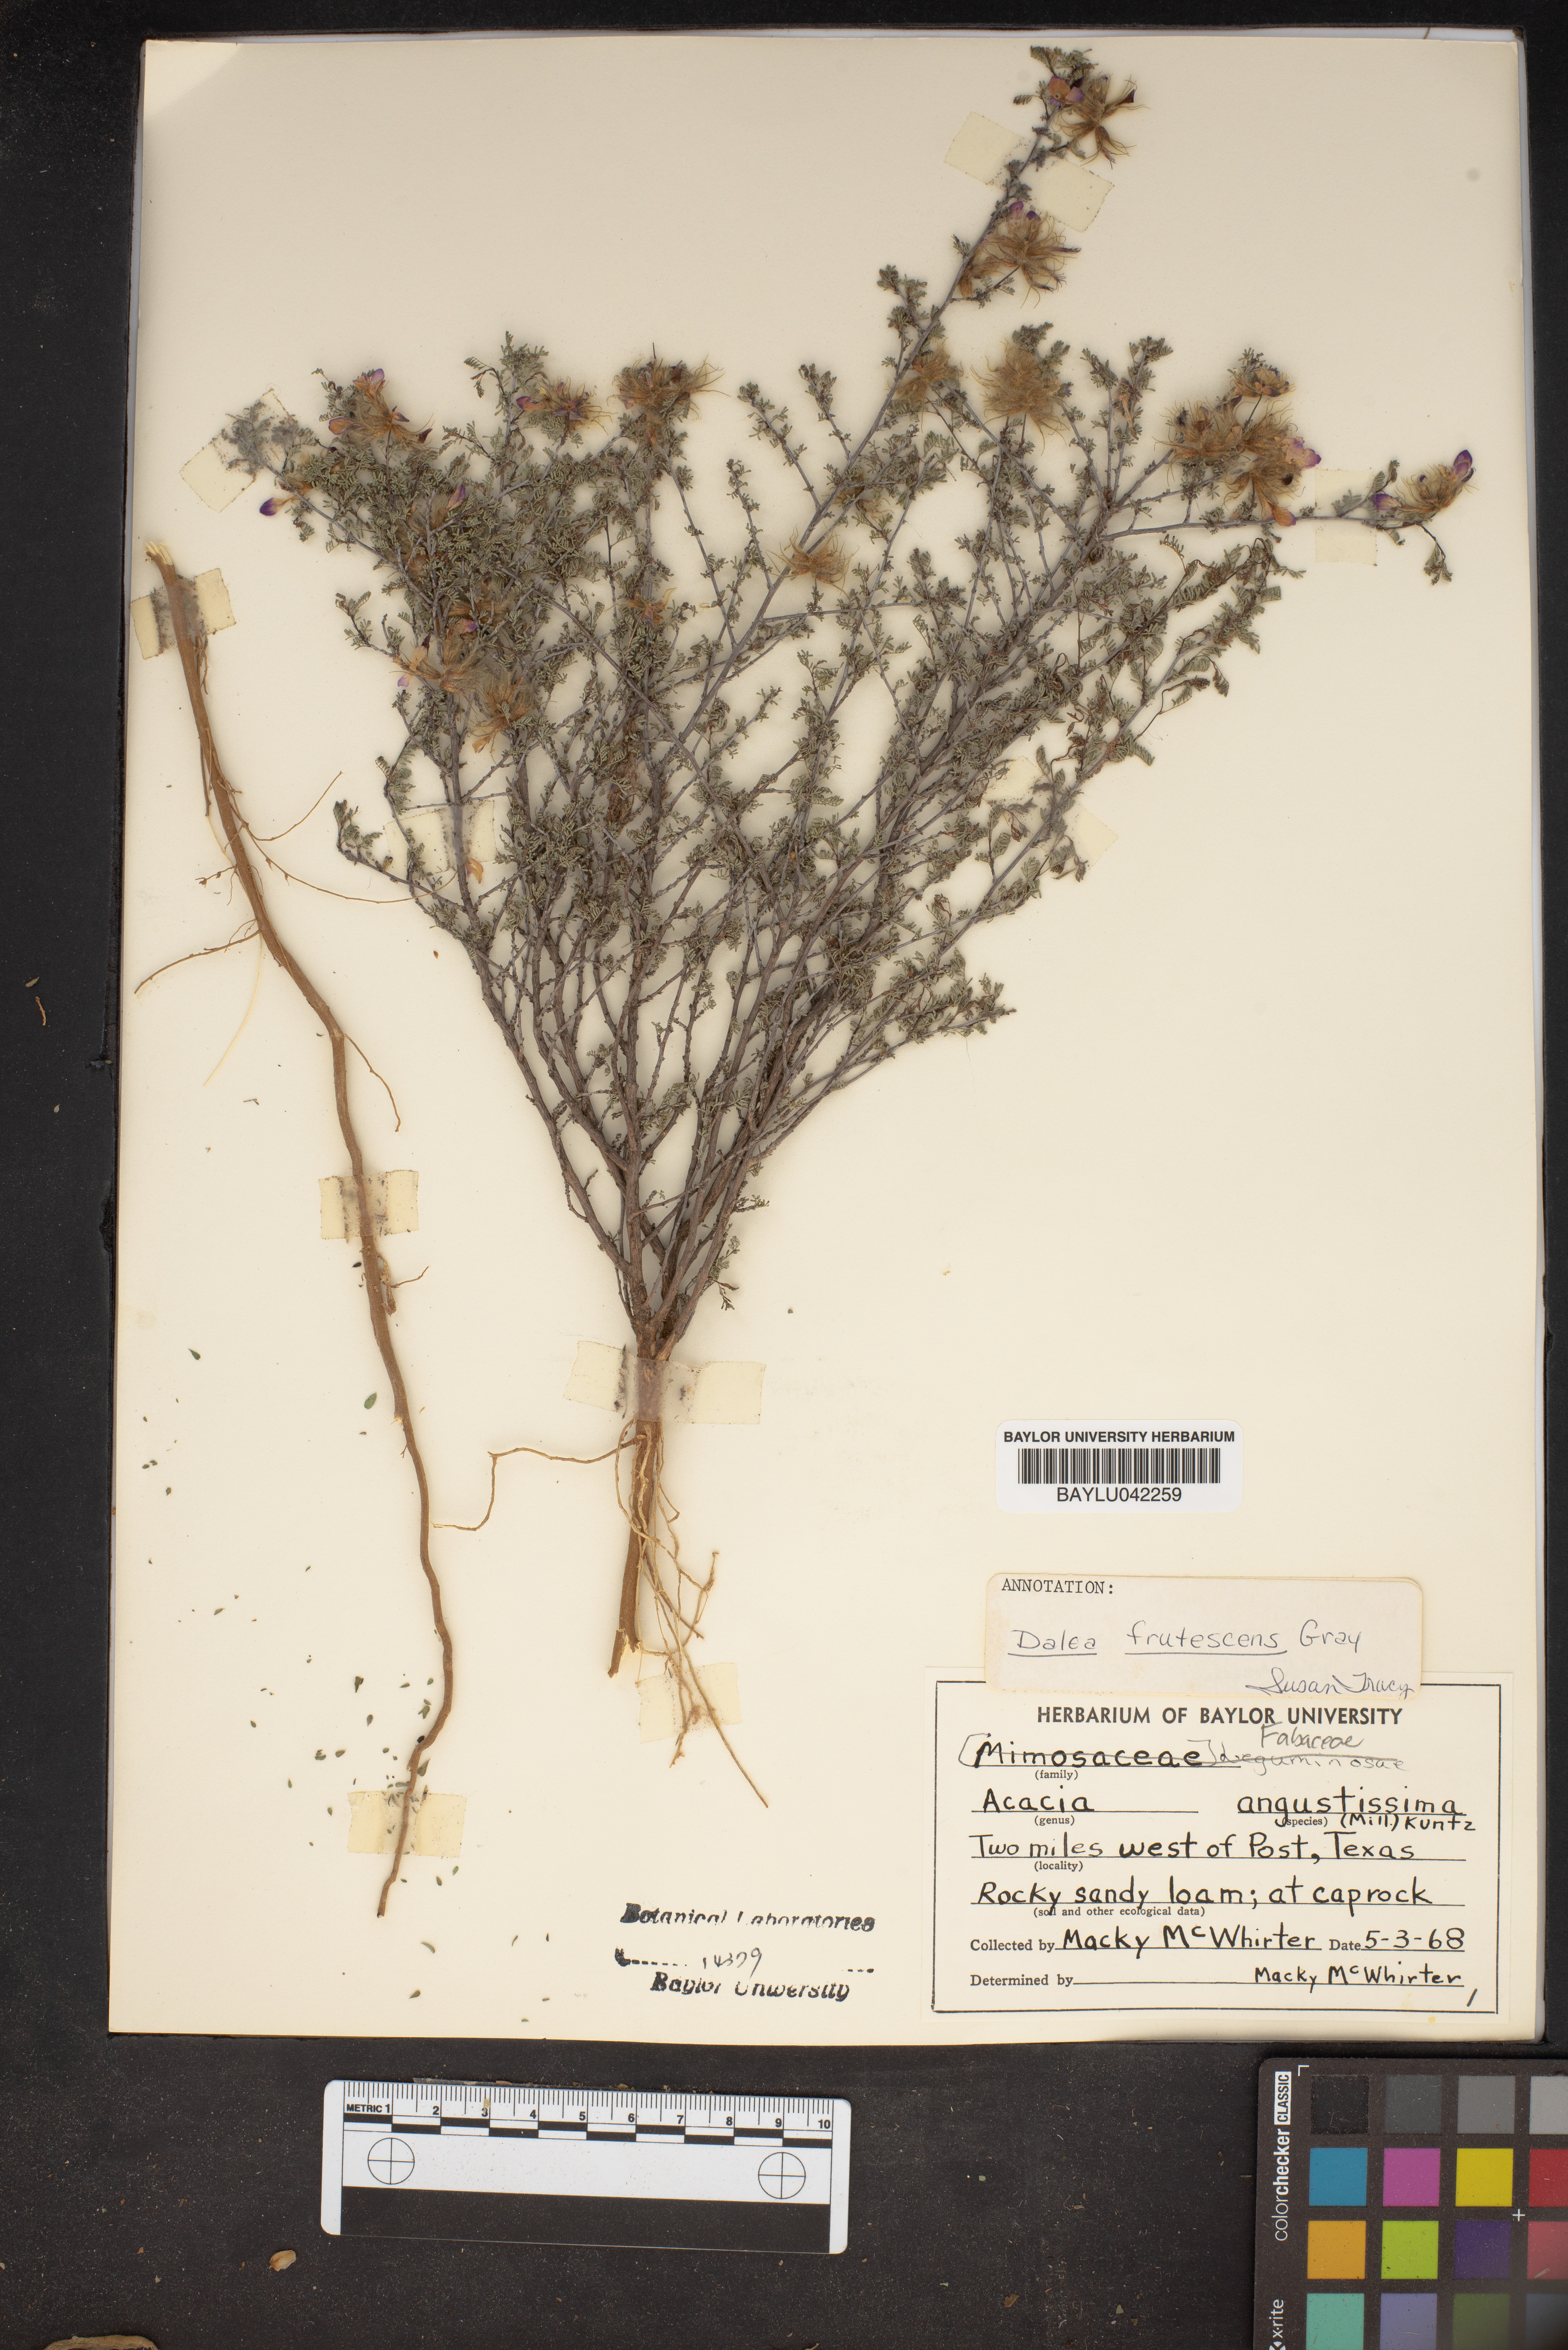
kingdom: Plantae
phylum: Tracheophyta
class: Magnoliopsida
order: Fabales
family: Fabaceae
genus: Eysenhardtia
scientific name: Eysenhardtia polystachya
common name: Kidneywood
